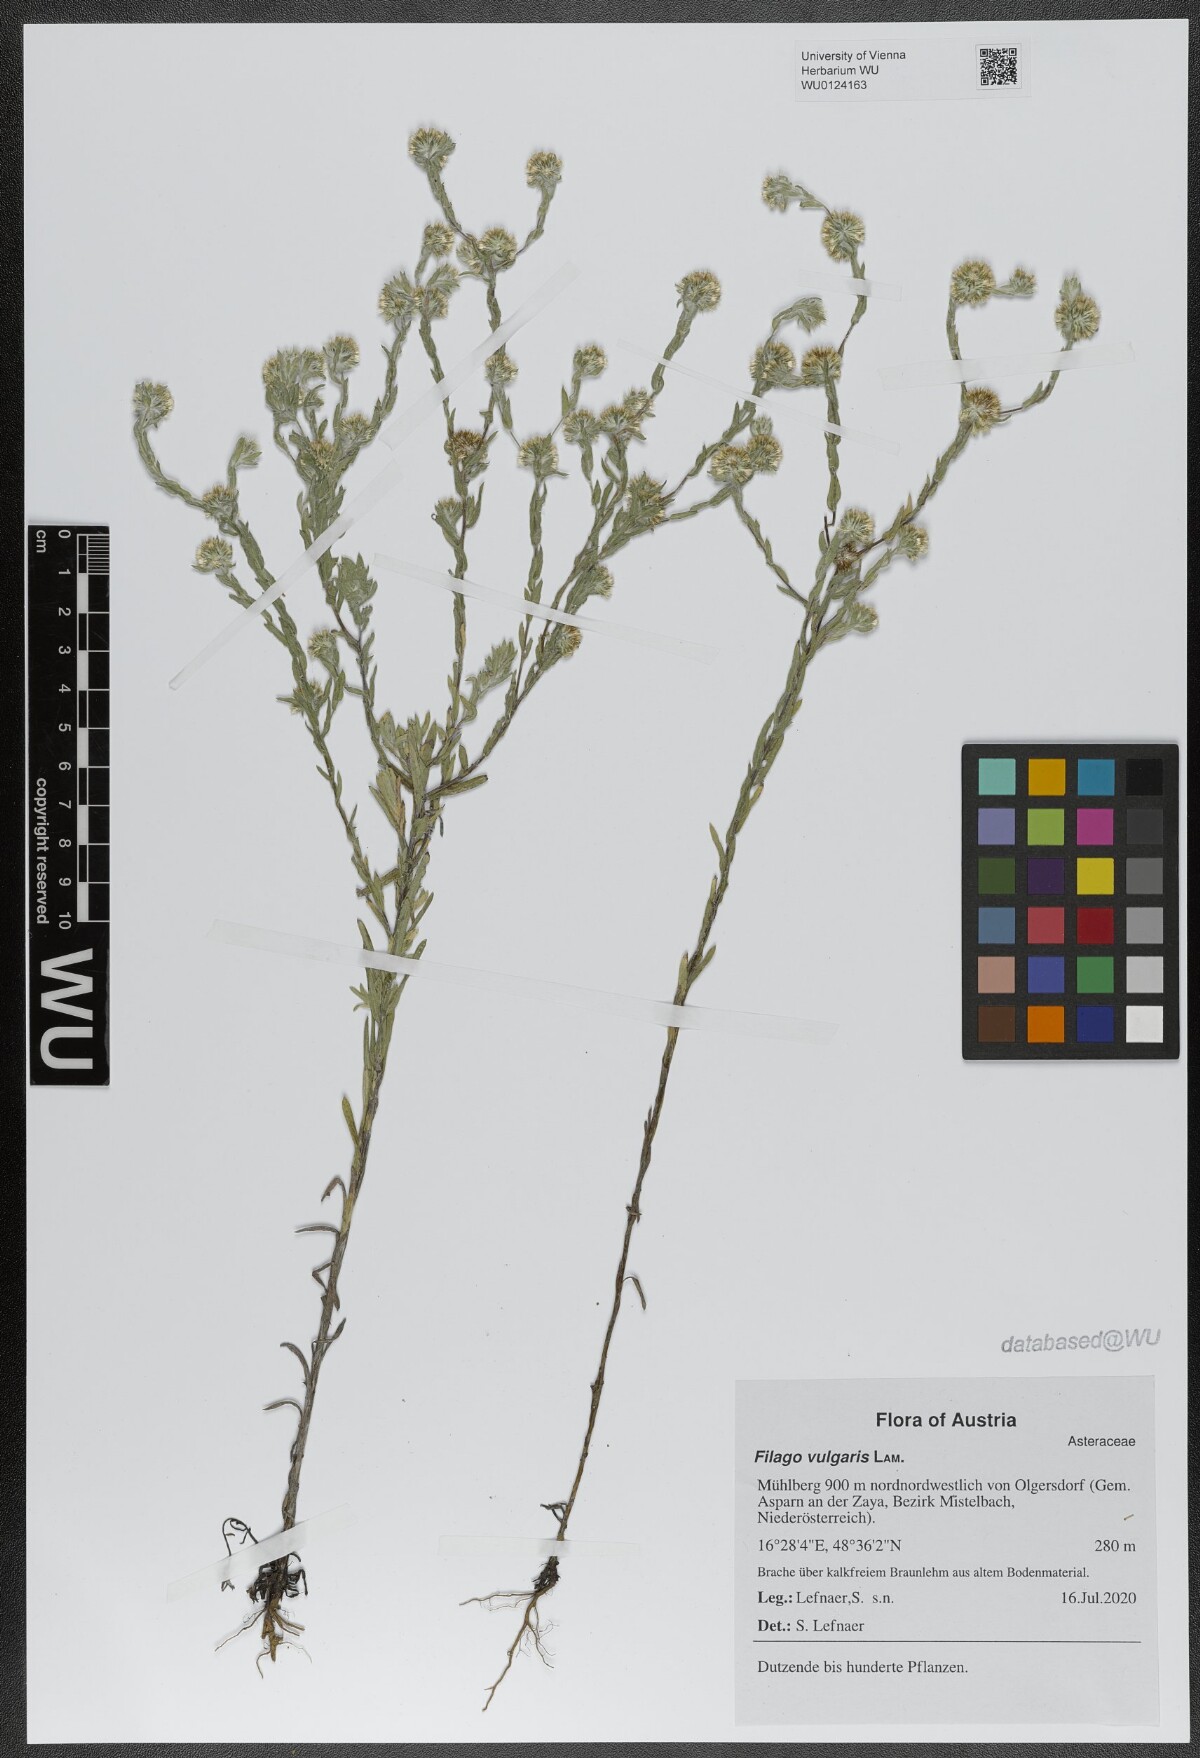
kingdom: Plantae
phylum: Tracheophyta
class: Magnoliopsida
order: Asterales
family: Asteraceae
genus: Filago
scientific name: Filago germanica
